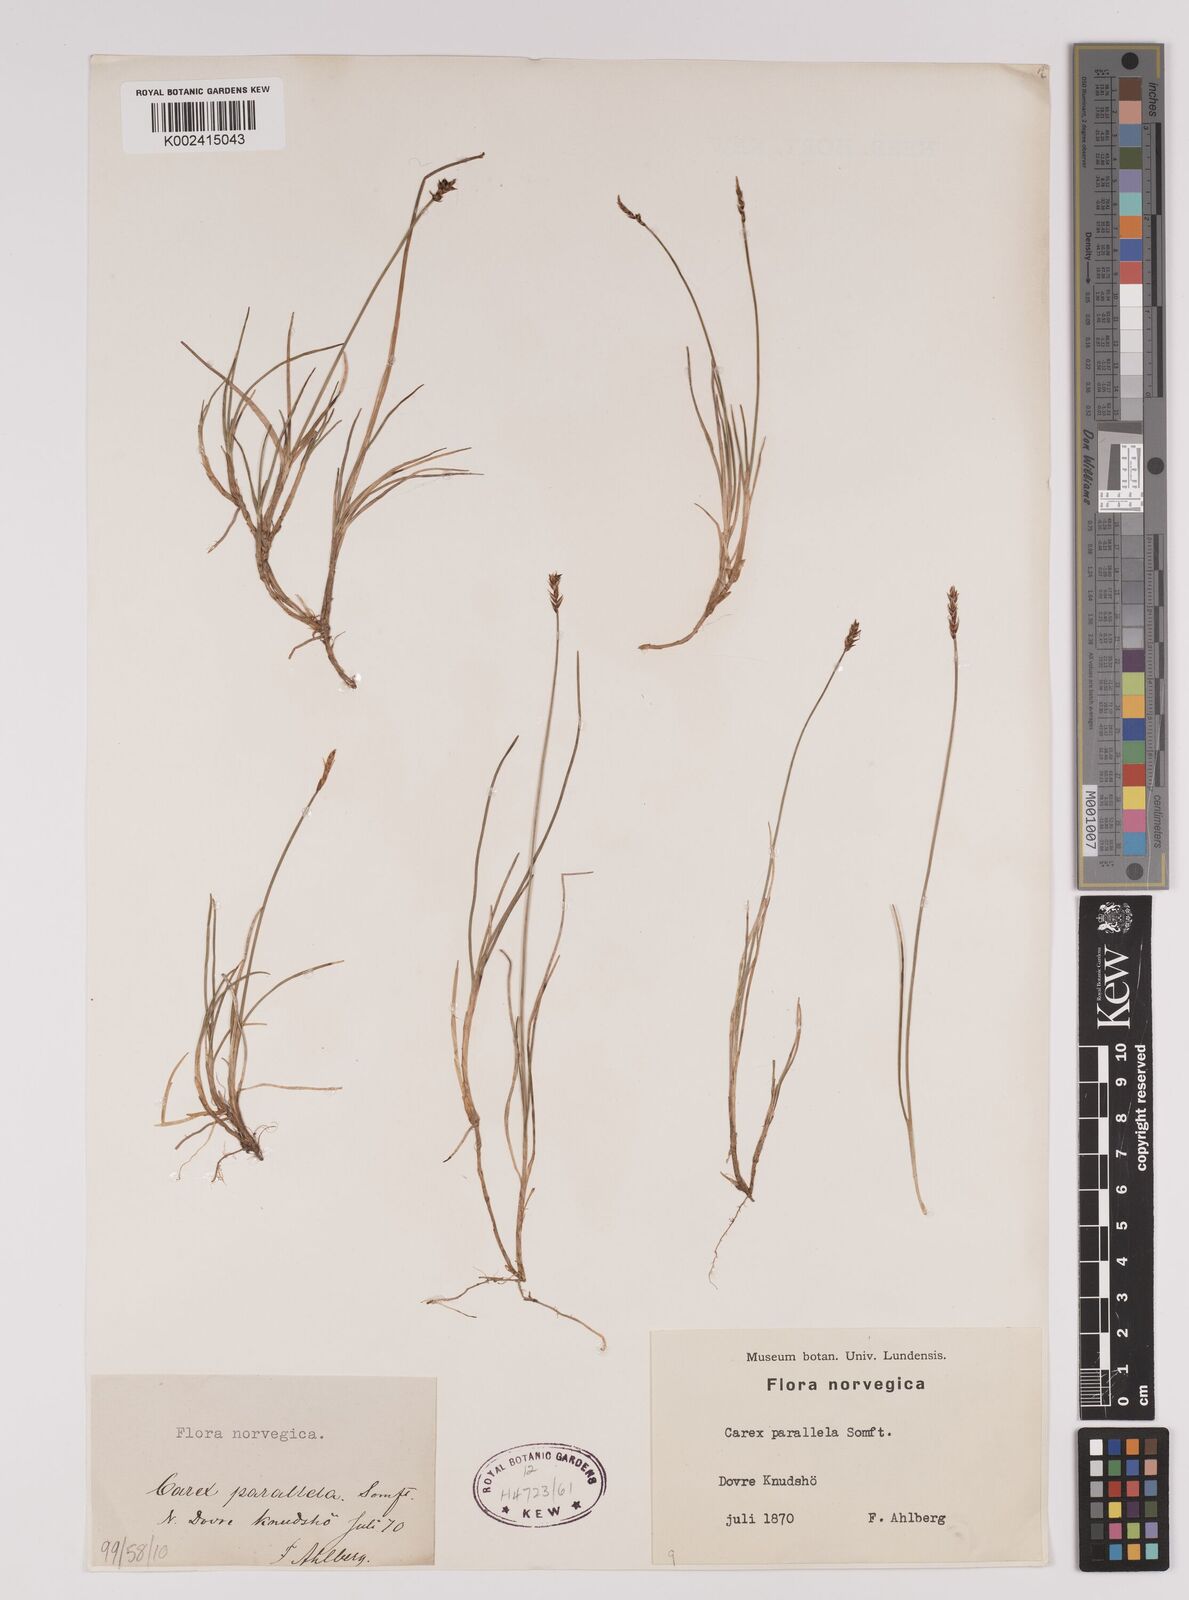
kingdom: Plantae
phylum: Tracheophyta
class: Liliopsida
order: Poales
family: Cyperaceae
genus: Carex
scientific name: Carex parallela
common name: Parallel sedge
